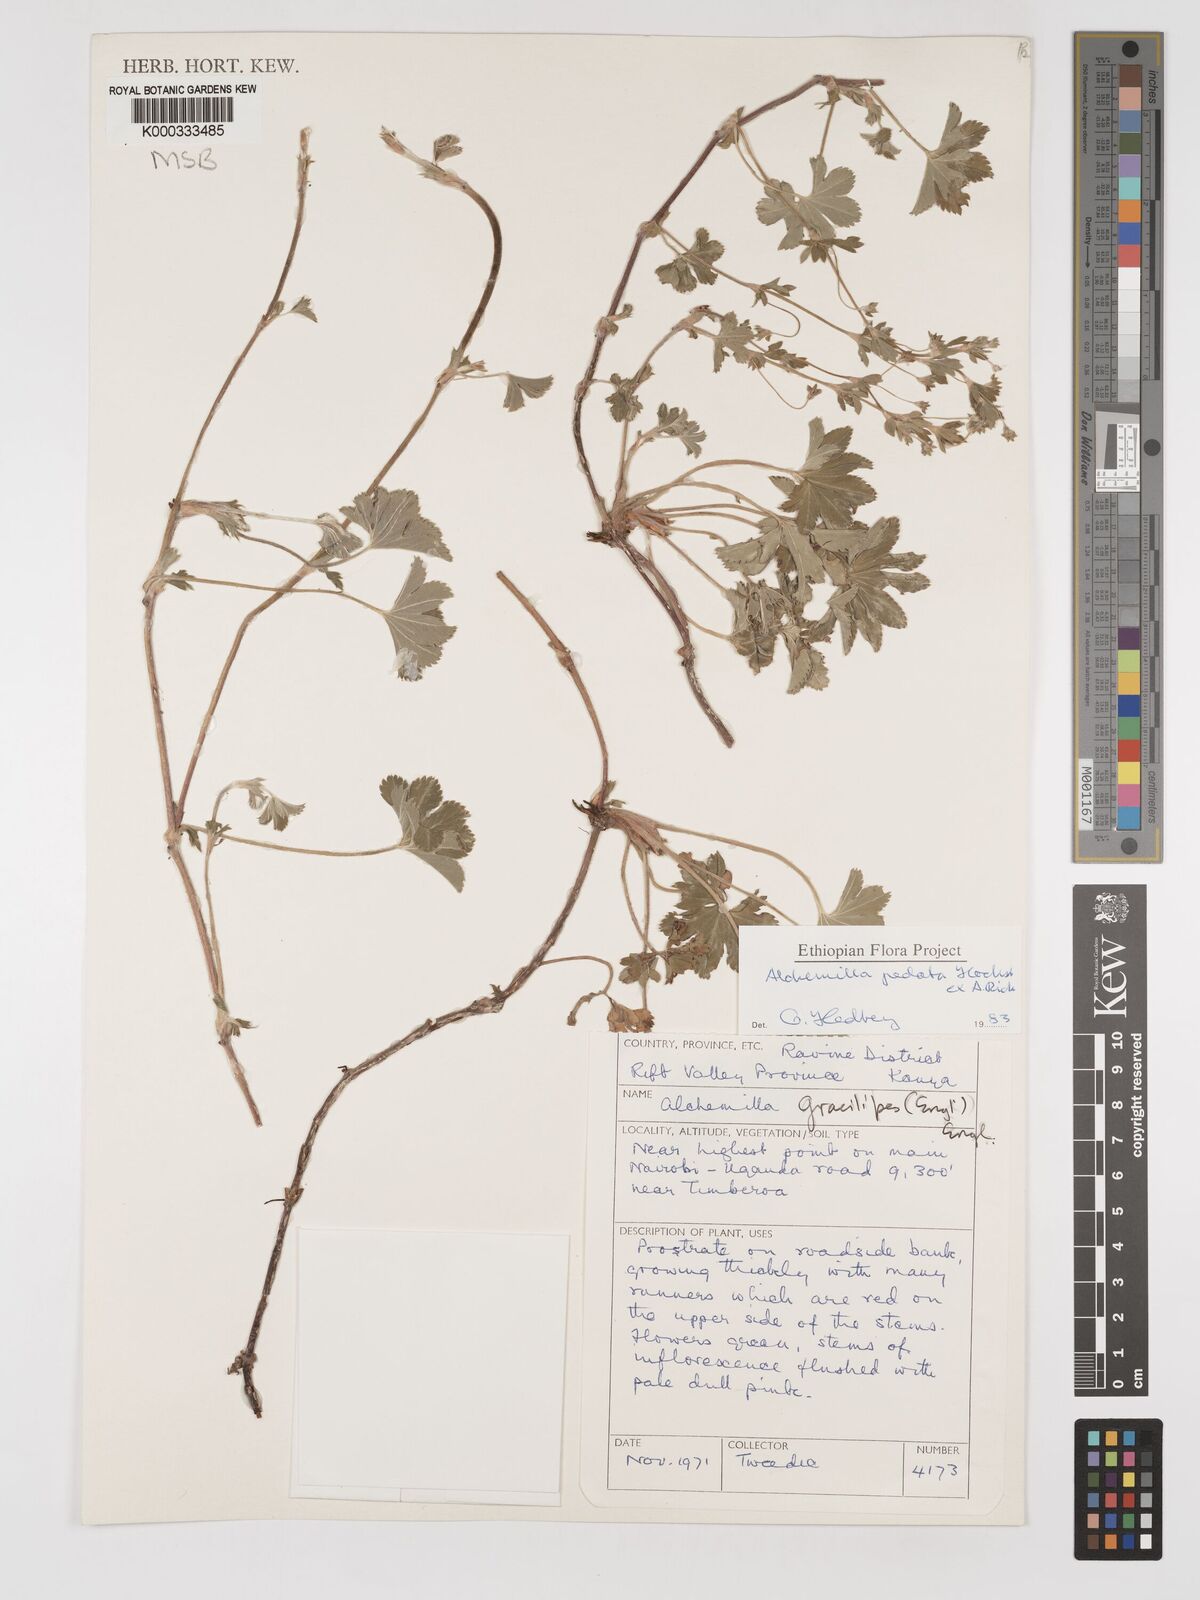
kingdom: Plantae
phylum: Tracheophyta
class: Magnoliopsida
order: Rosales
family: Rosaceae
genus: Alchemilla
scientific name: Alchemilla pedata
